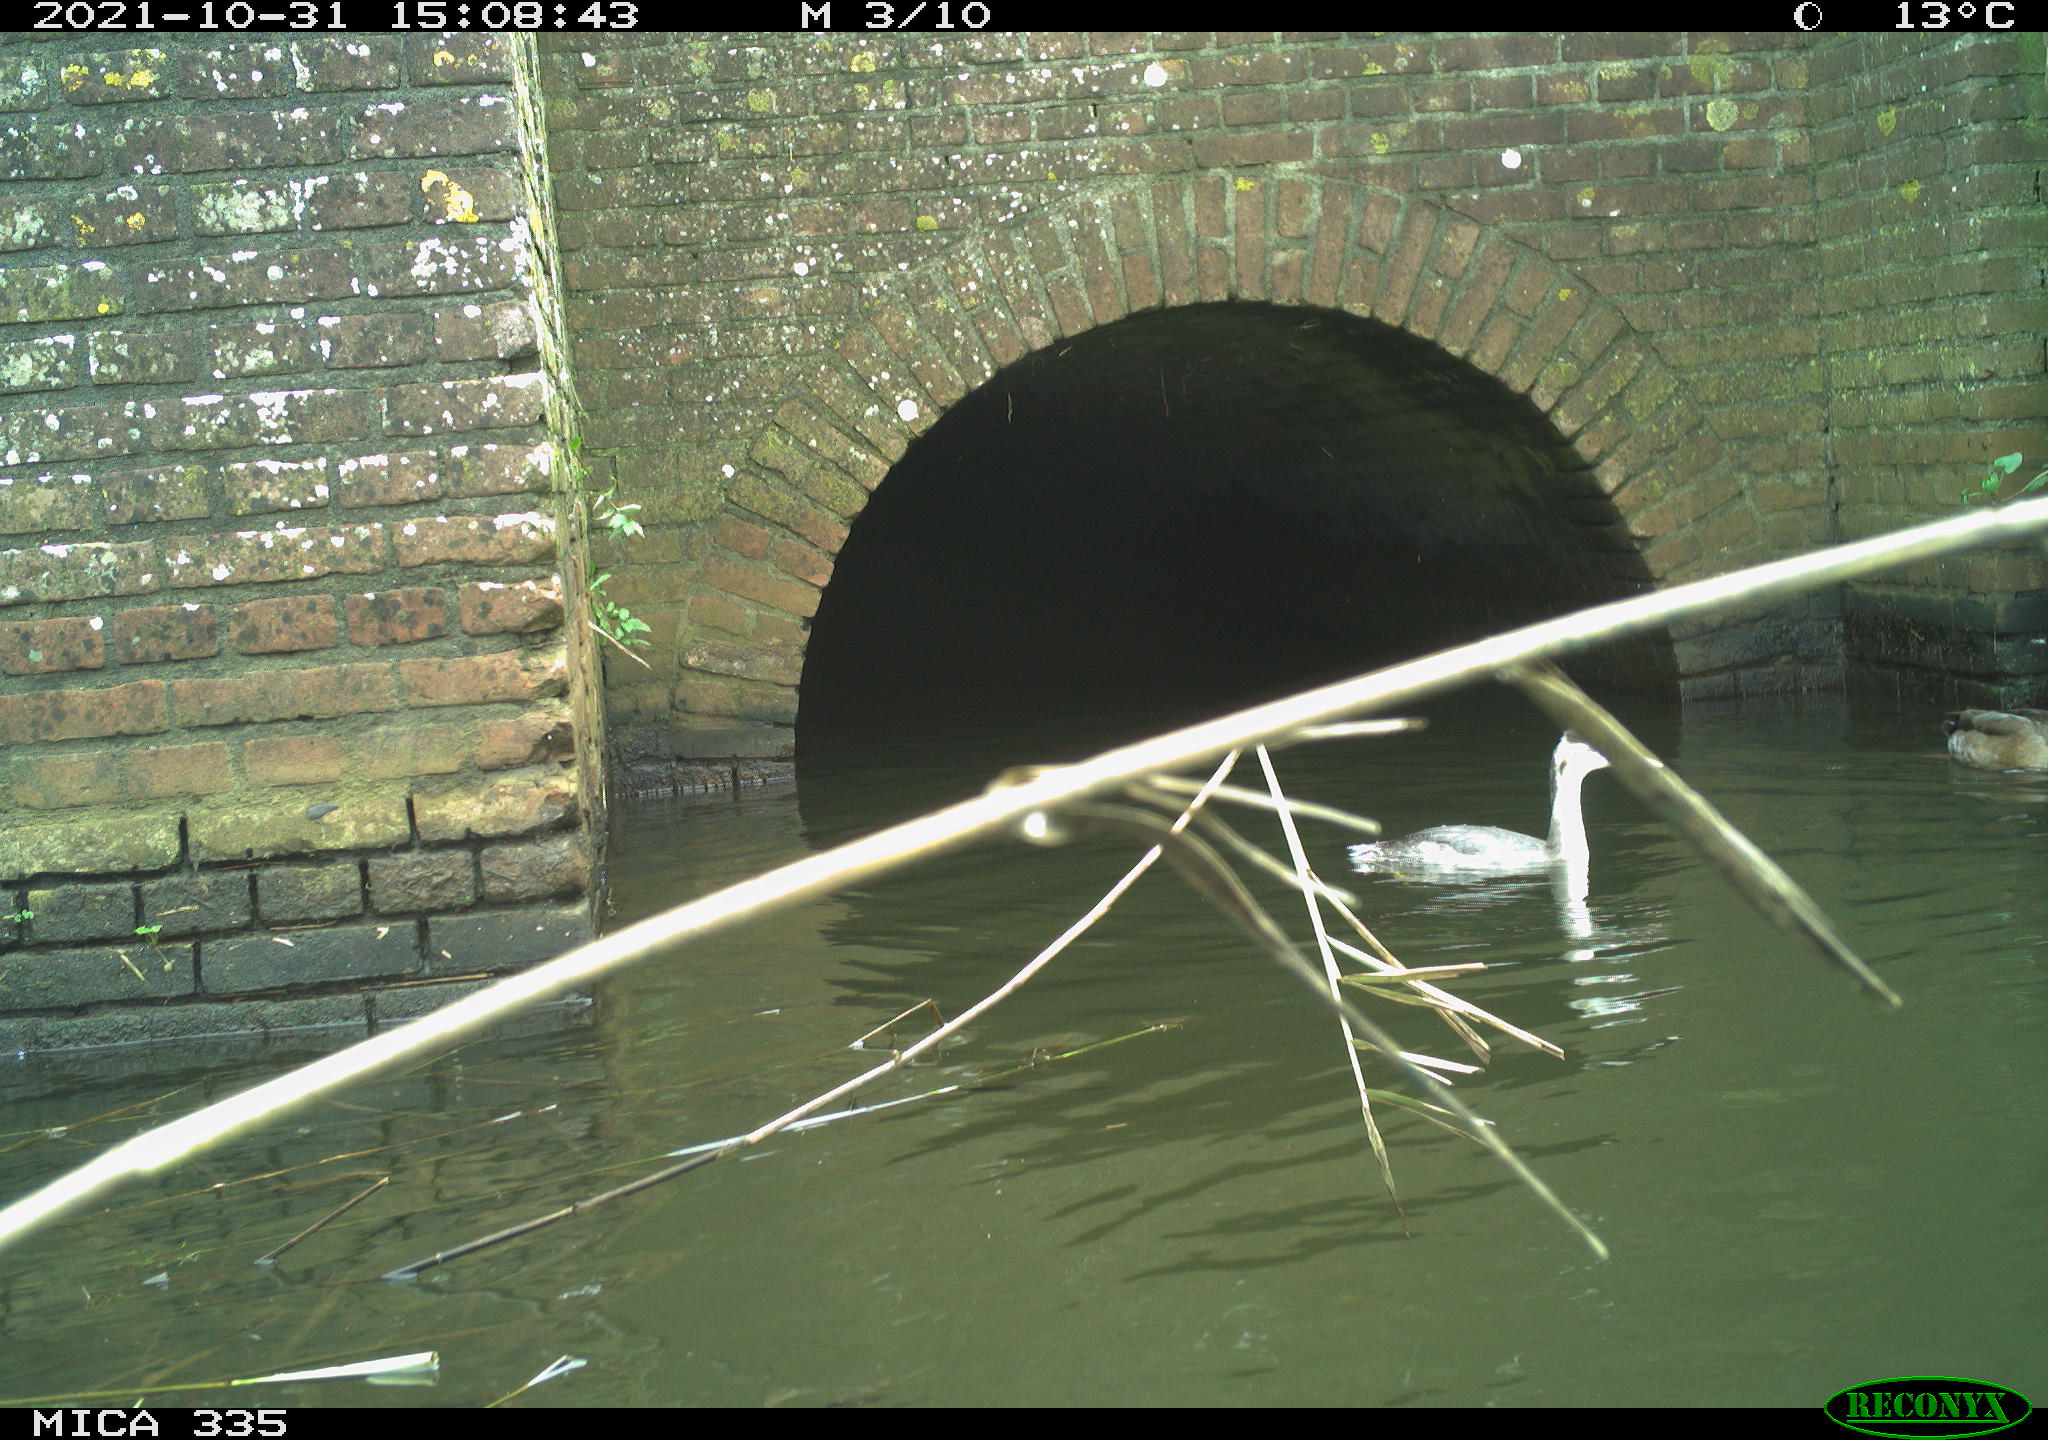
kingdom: Animalia
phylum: Chordata
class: Aves
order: Anseriformes
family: Anatidae
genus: Anas
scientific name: Anas platyrhynchos
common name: Mallard
